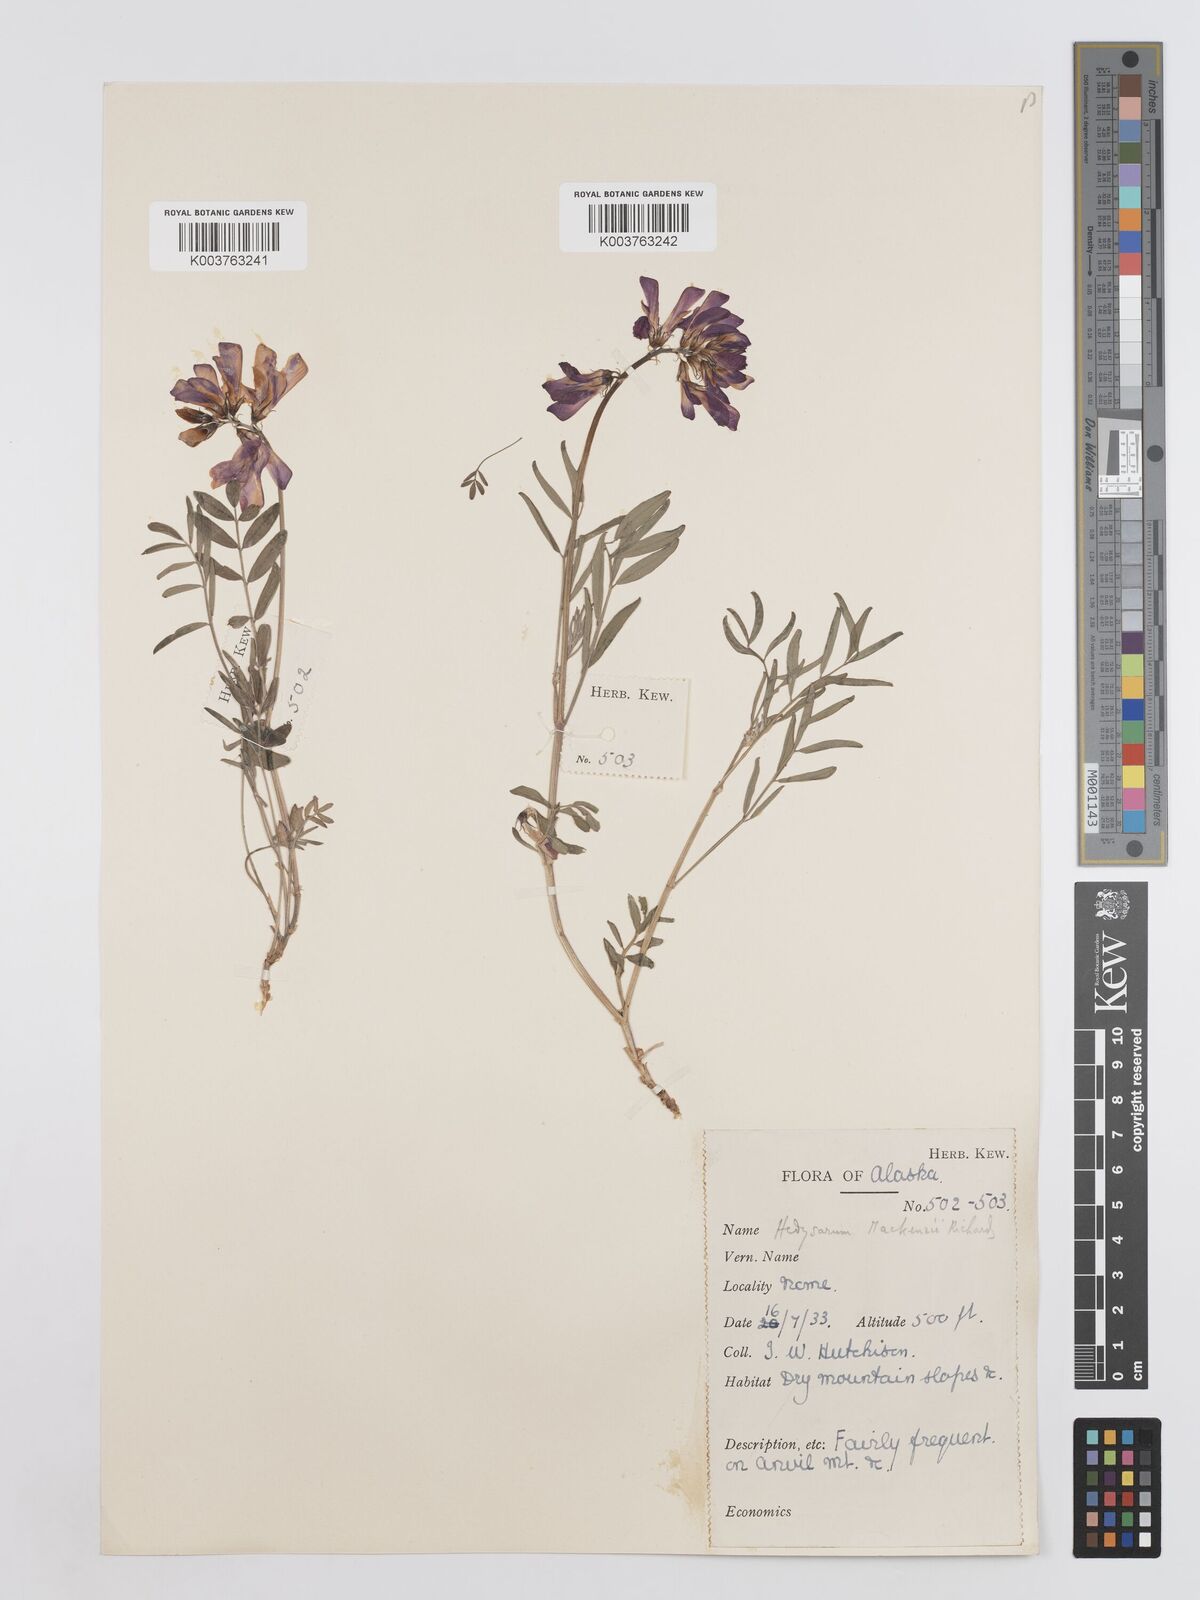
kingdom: Plantae
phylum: Tracheophyta
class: Magnoliopsida
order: Fabales
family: Fabaceae
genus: Hedysarum
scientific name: Hedysarum boreale
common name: Northern sweet-vetch
